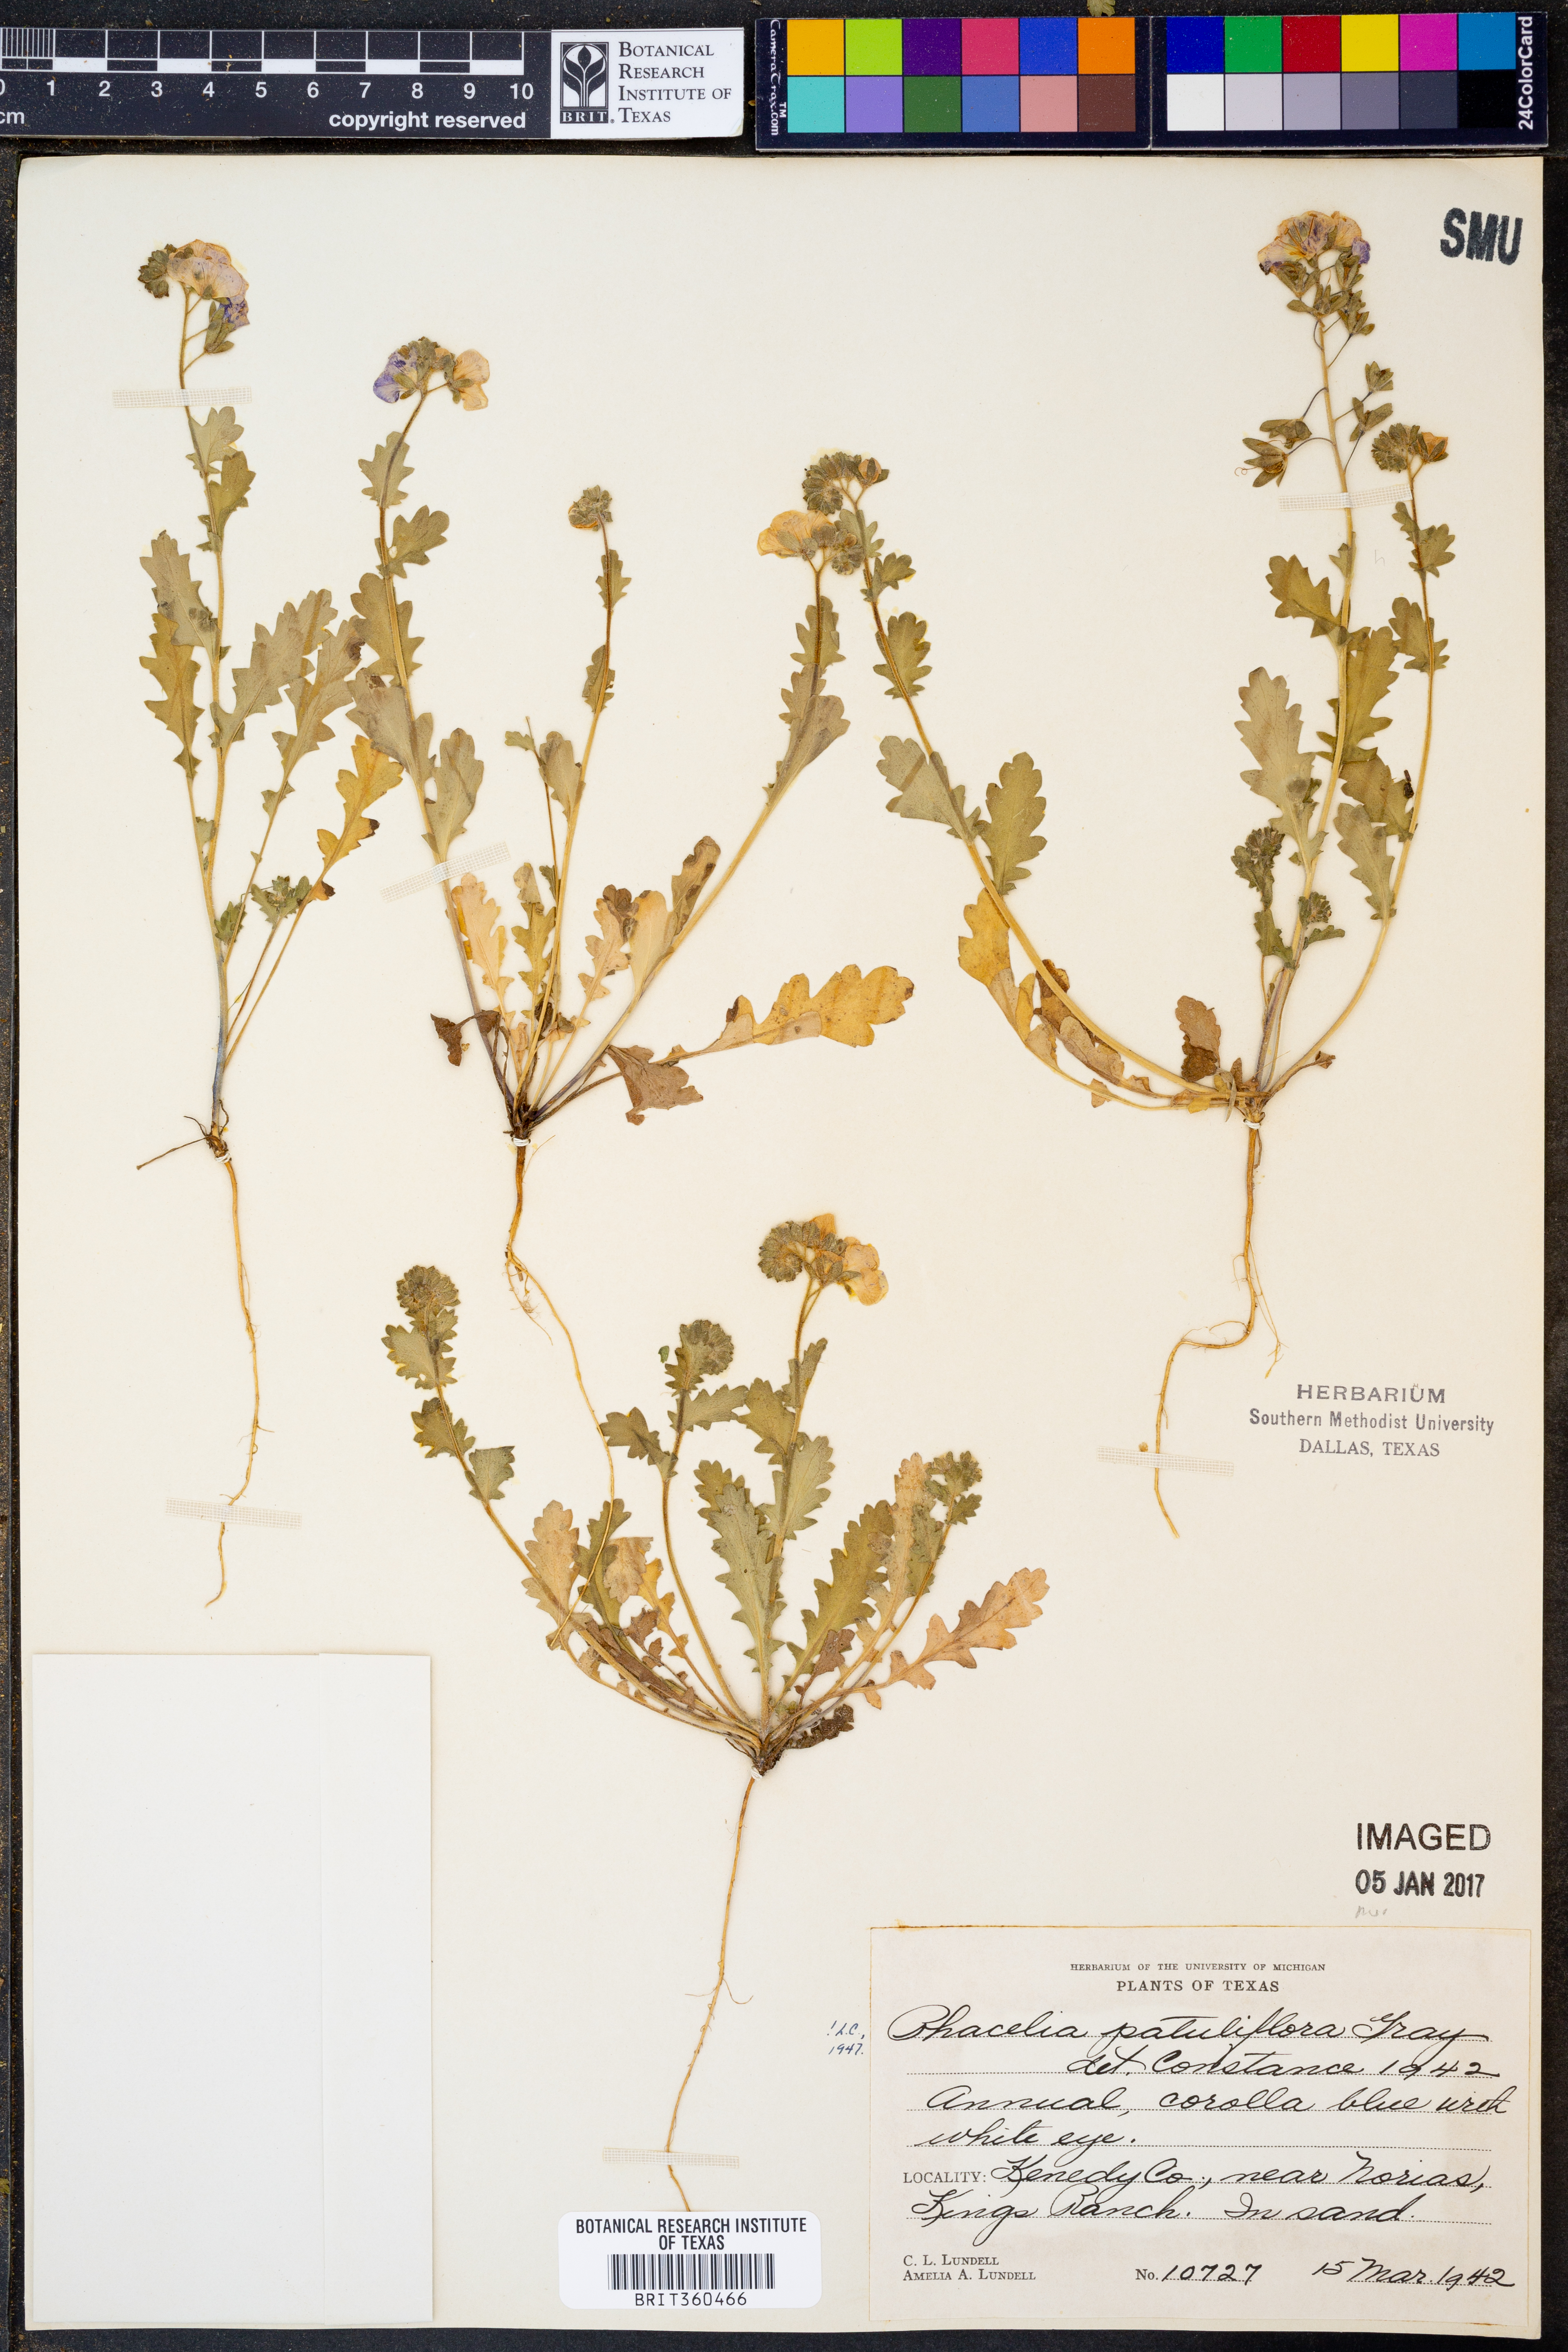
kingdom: Plantae
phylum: Tracheophyta
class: Magnoliopsida
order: Boraginales
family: Hydrophyllaceae
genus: Phacelia
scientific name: Phacelia patuliflora
